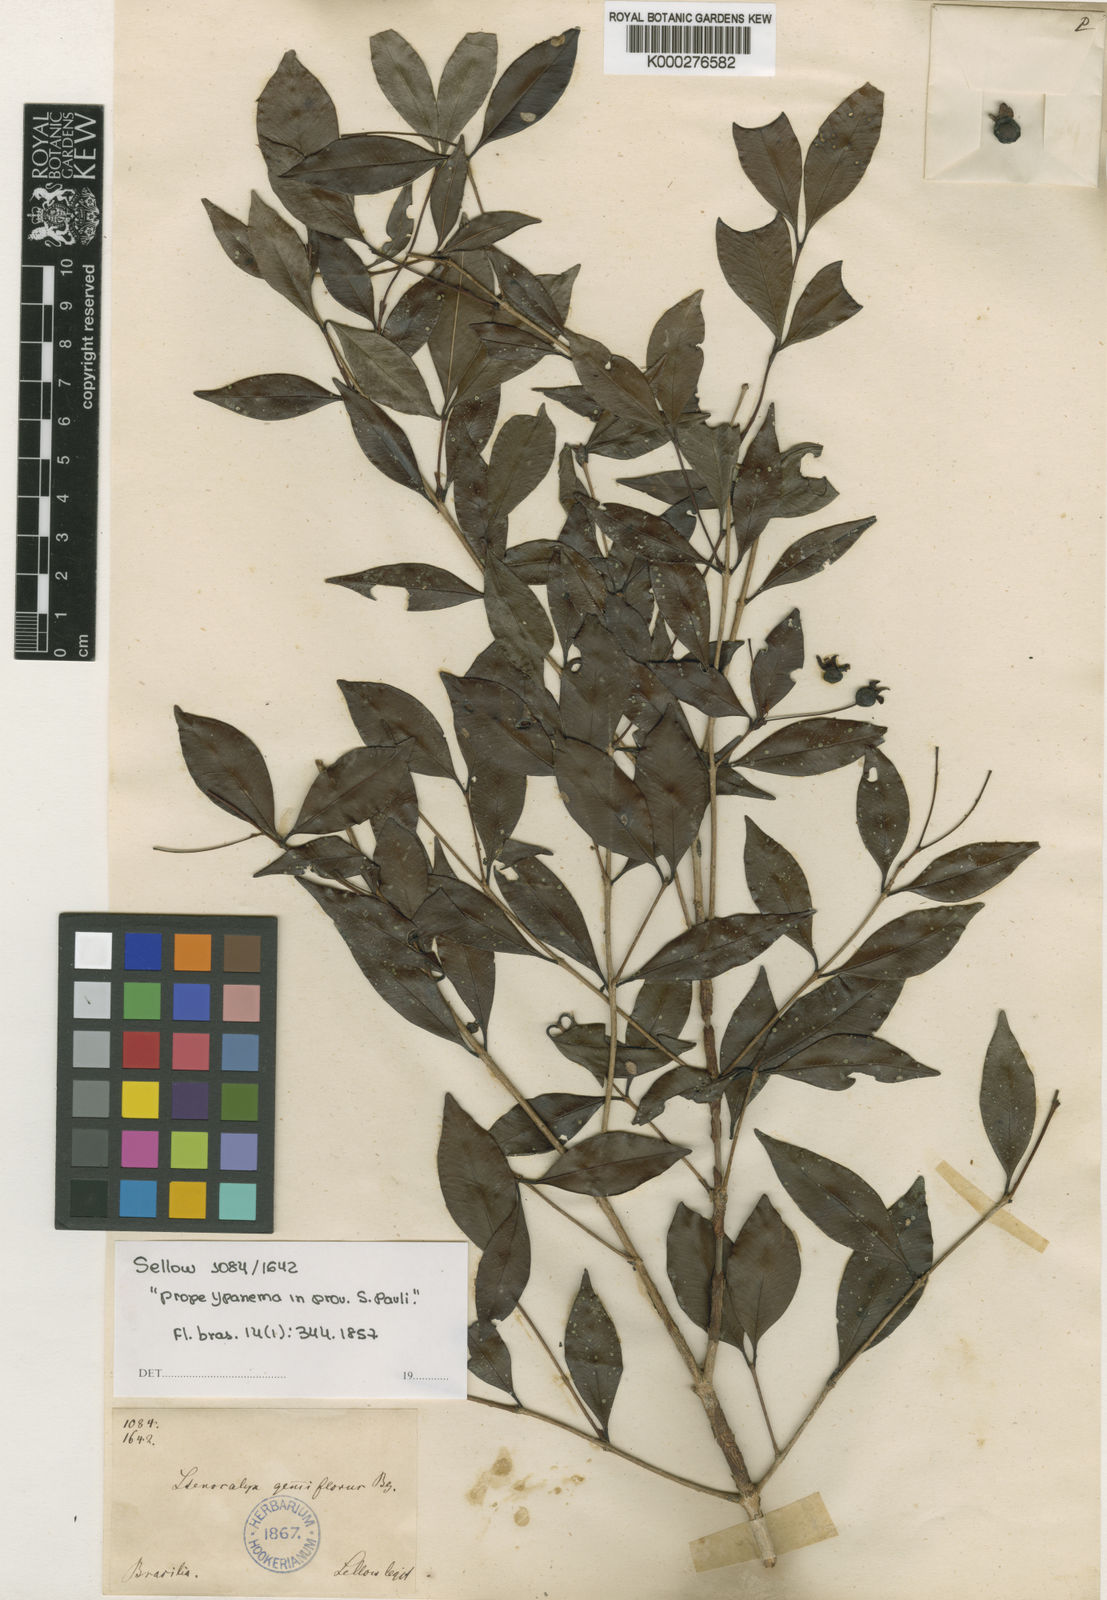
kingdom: Plantae
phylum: Tracheophyta
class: Magnoliopsida
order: Myrtales
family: Myrtaceae
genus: Eugenia
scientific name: Eugenia ophthalmantha
